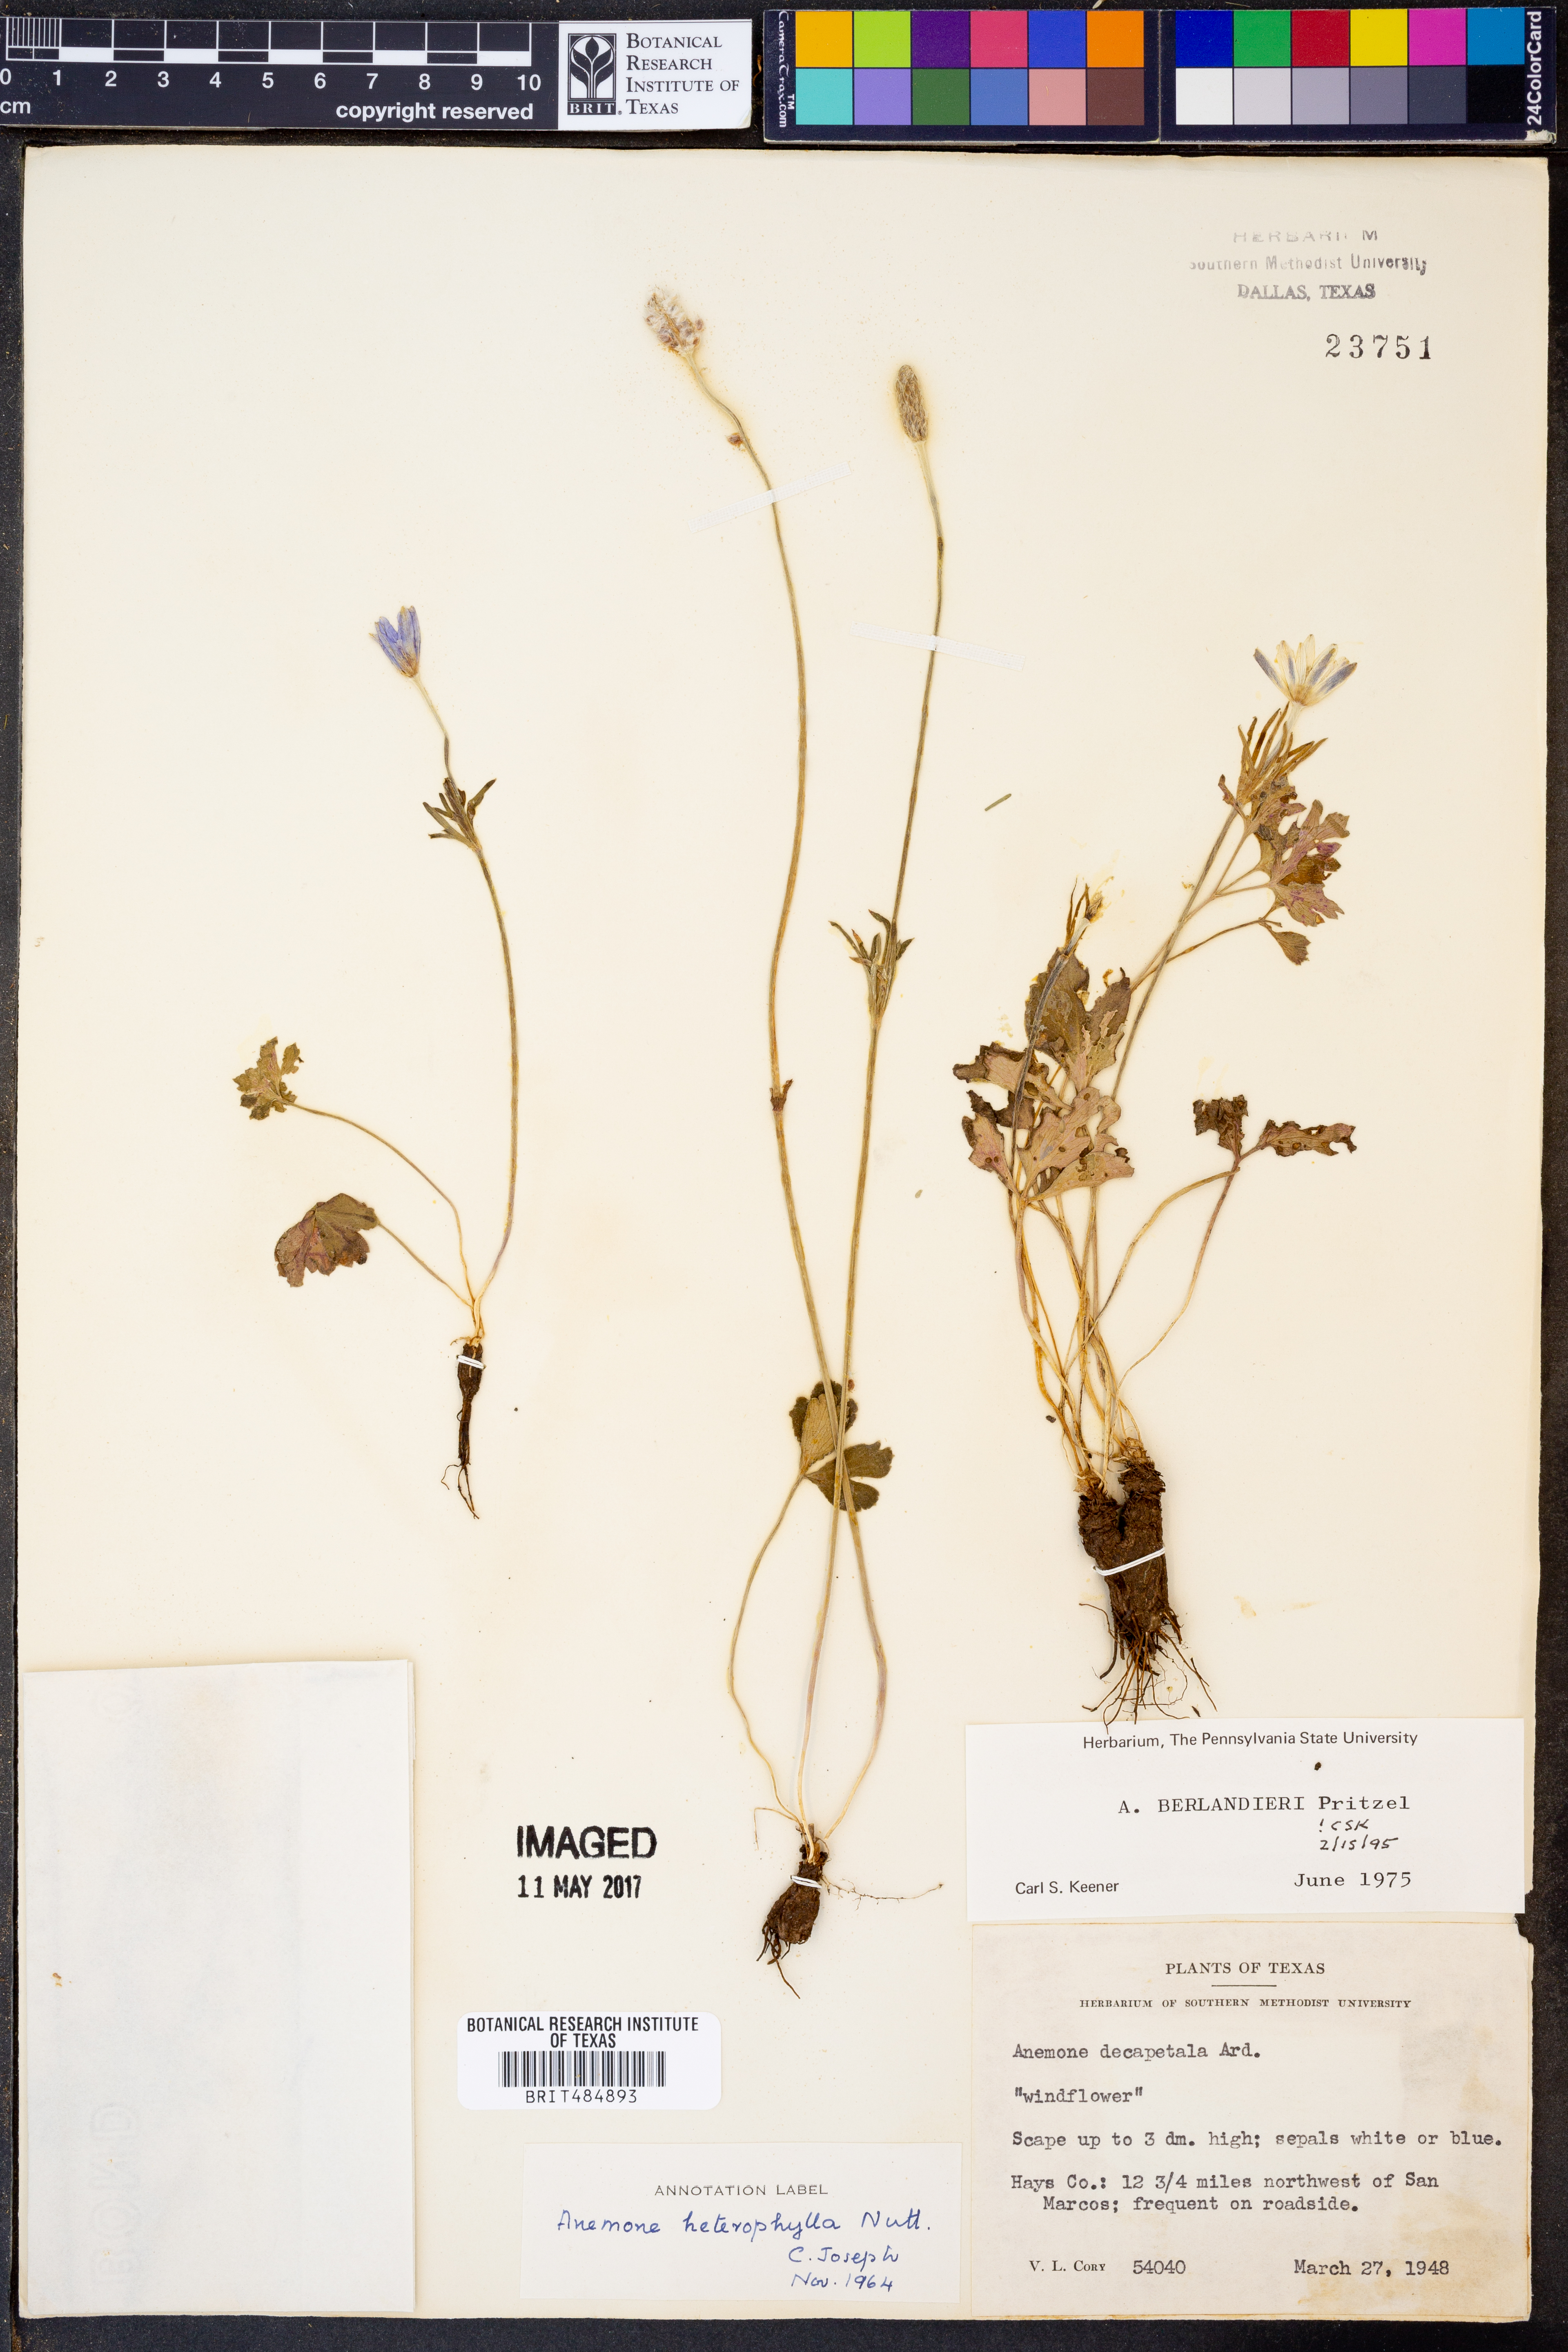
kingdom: Plantae
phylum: Tracheophyta
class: Magnoliopsida
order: Ranunculales
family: Ranunculaceae
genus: Anemone
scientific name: Anemone berlandieri
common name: Ten-petal anemone
